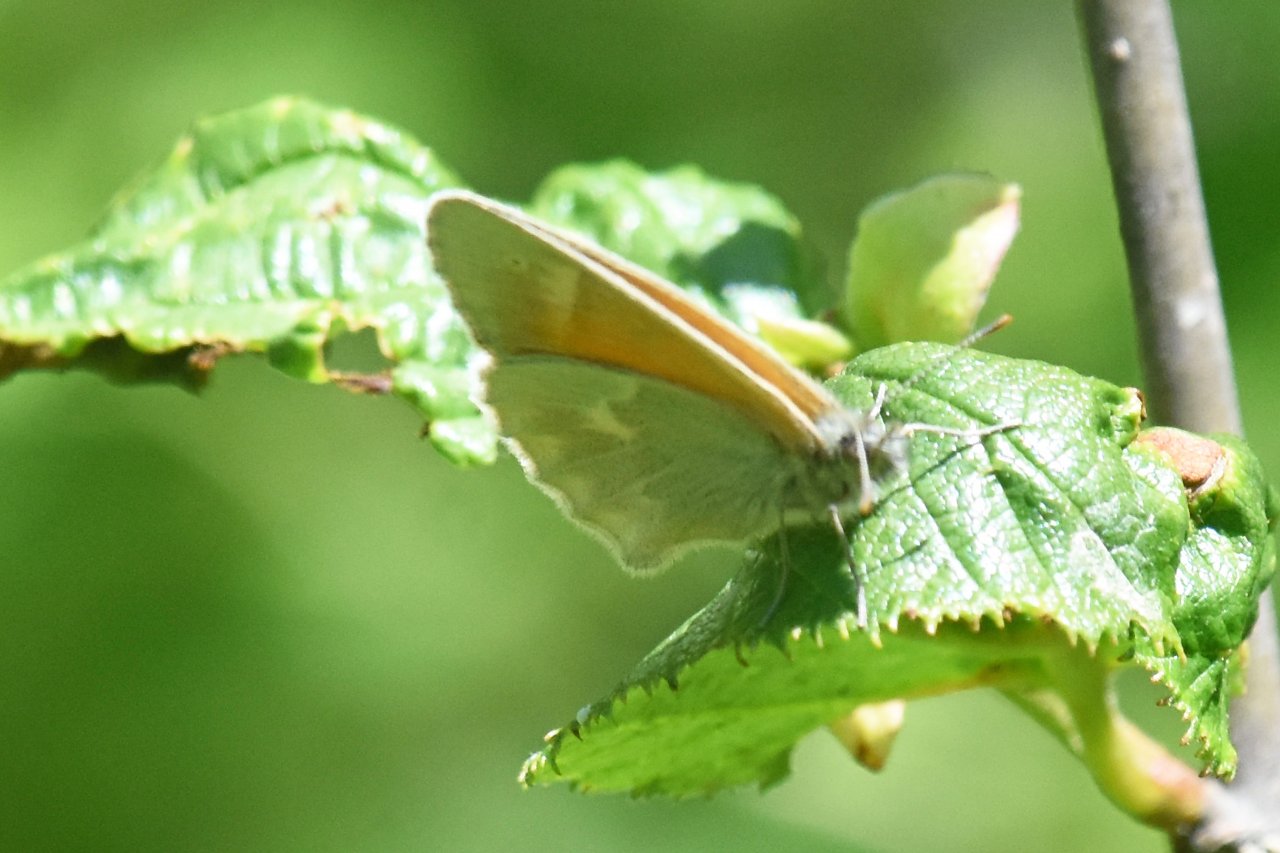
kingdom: Animalia
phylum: Arthropoda
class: Insecta
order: Lepidoptera
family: Nymphalidae
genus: Coenonympha
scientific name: Coenonympha tullia
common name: Large Heath
